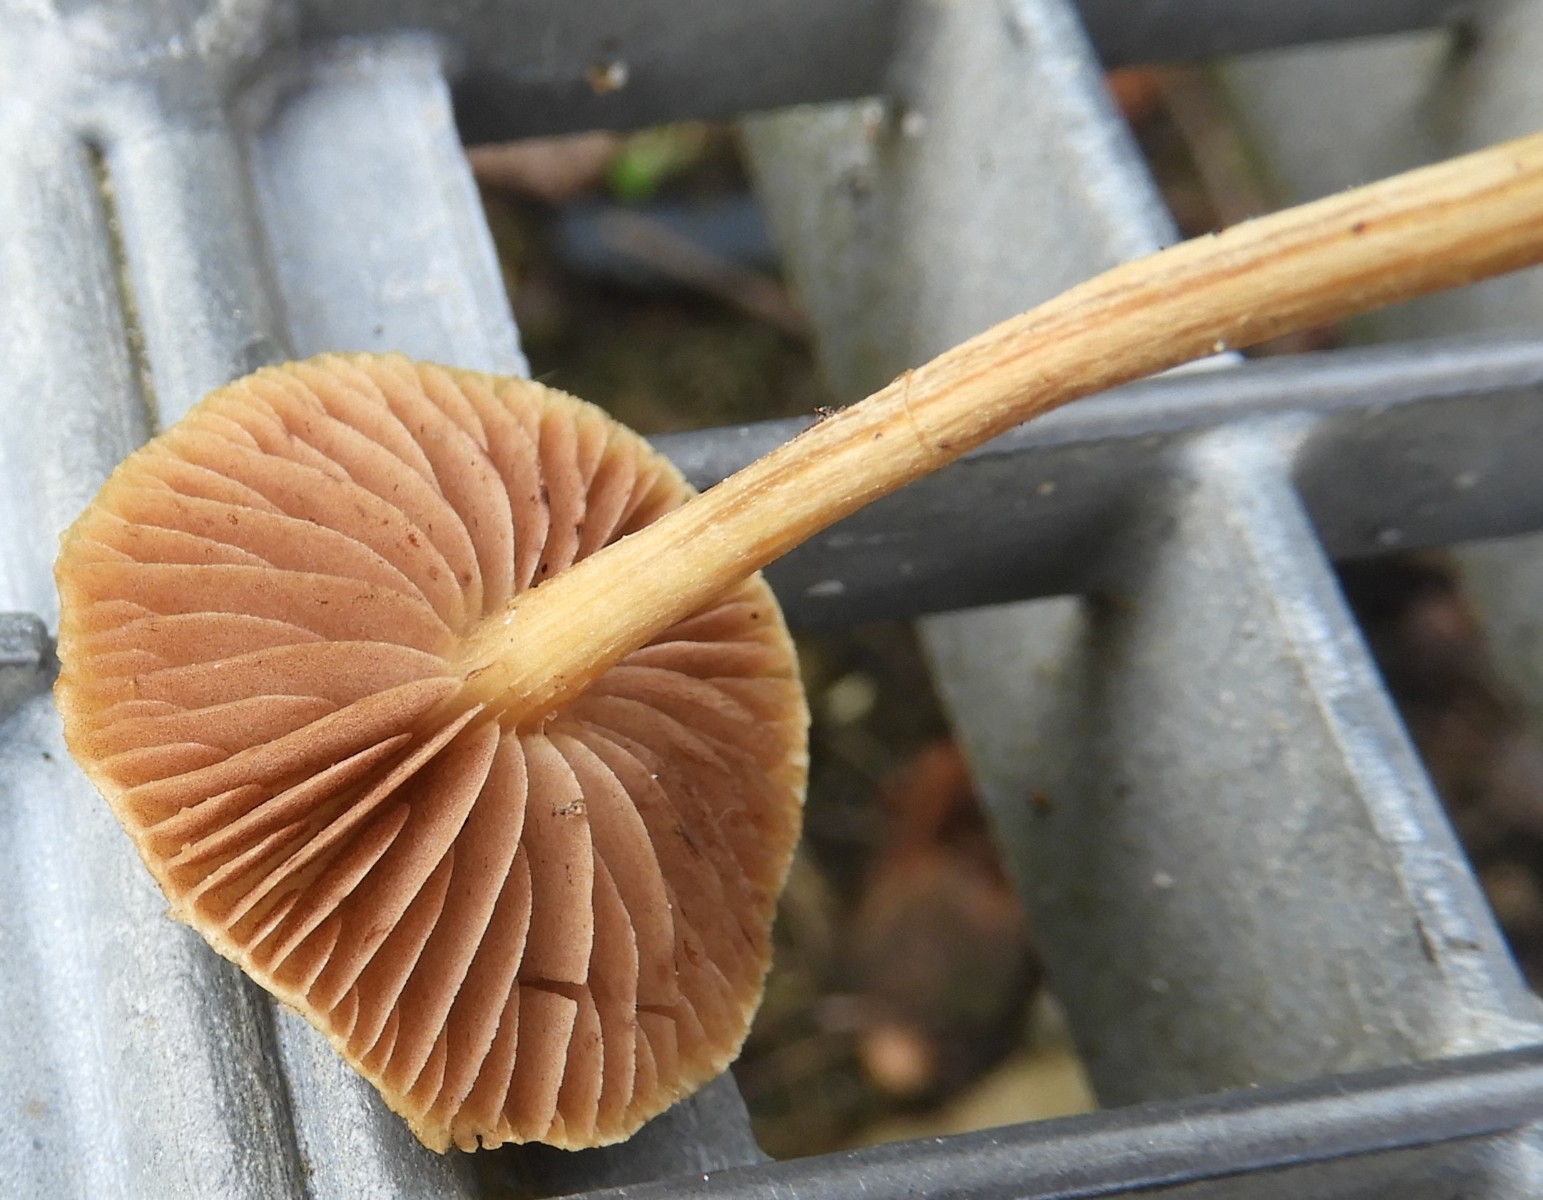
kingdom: Fungi
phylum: Basidiomycota
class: Agaricomycetes
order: Agaricales
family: Strophariaceae
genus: Agrocybe
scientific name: Agrocybe pediades
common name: almindelig agerhat
